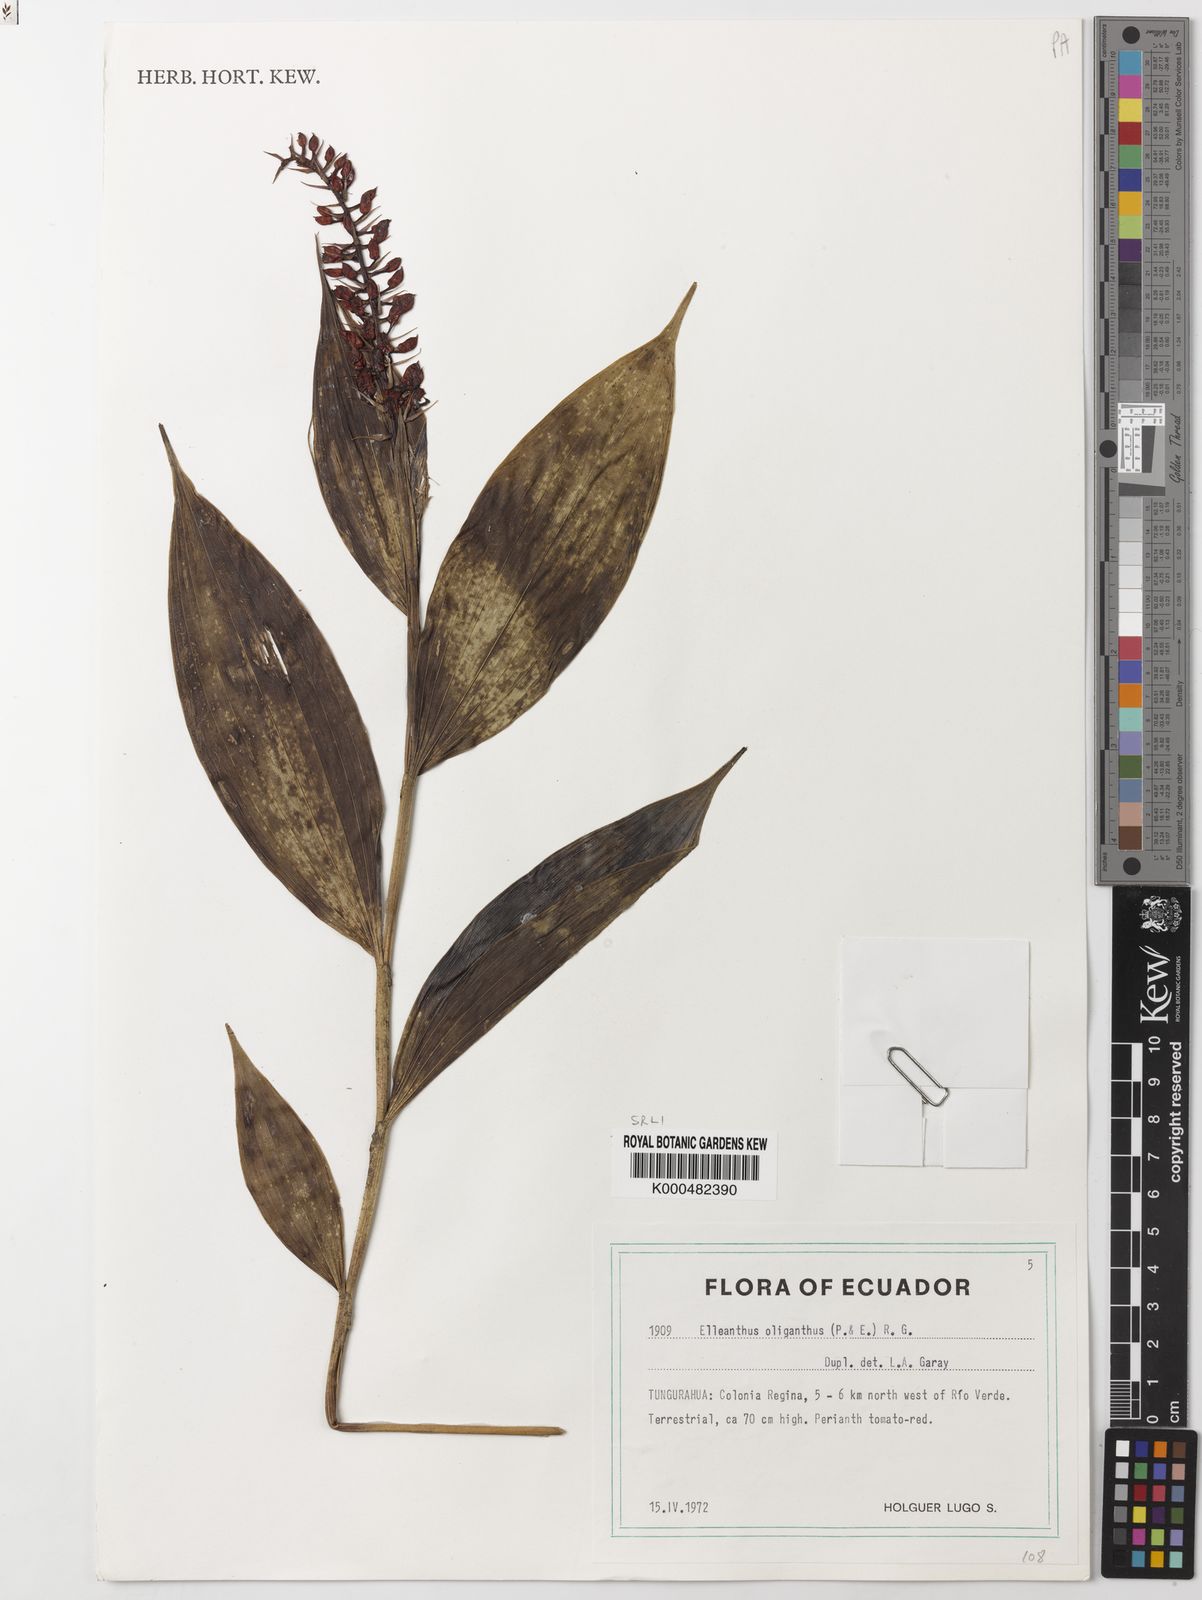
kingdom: Plantae
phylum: Tracheophyta
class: Liliopsida
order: Asparagales
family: Orchidaceae
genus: Elleanthus
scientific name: Elleanthus oliganthus
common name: Sparse blooming elleanthus
